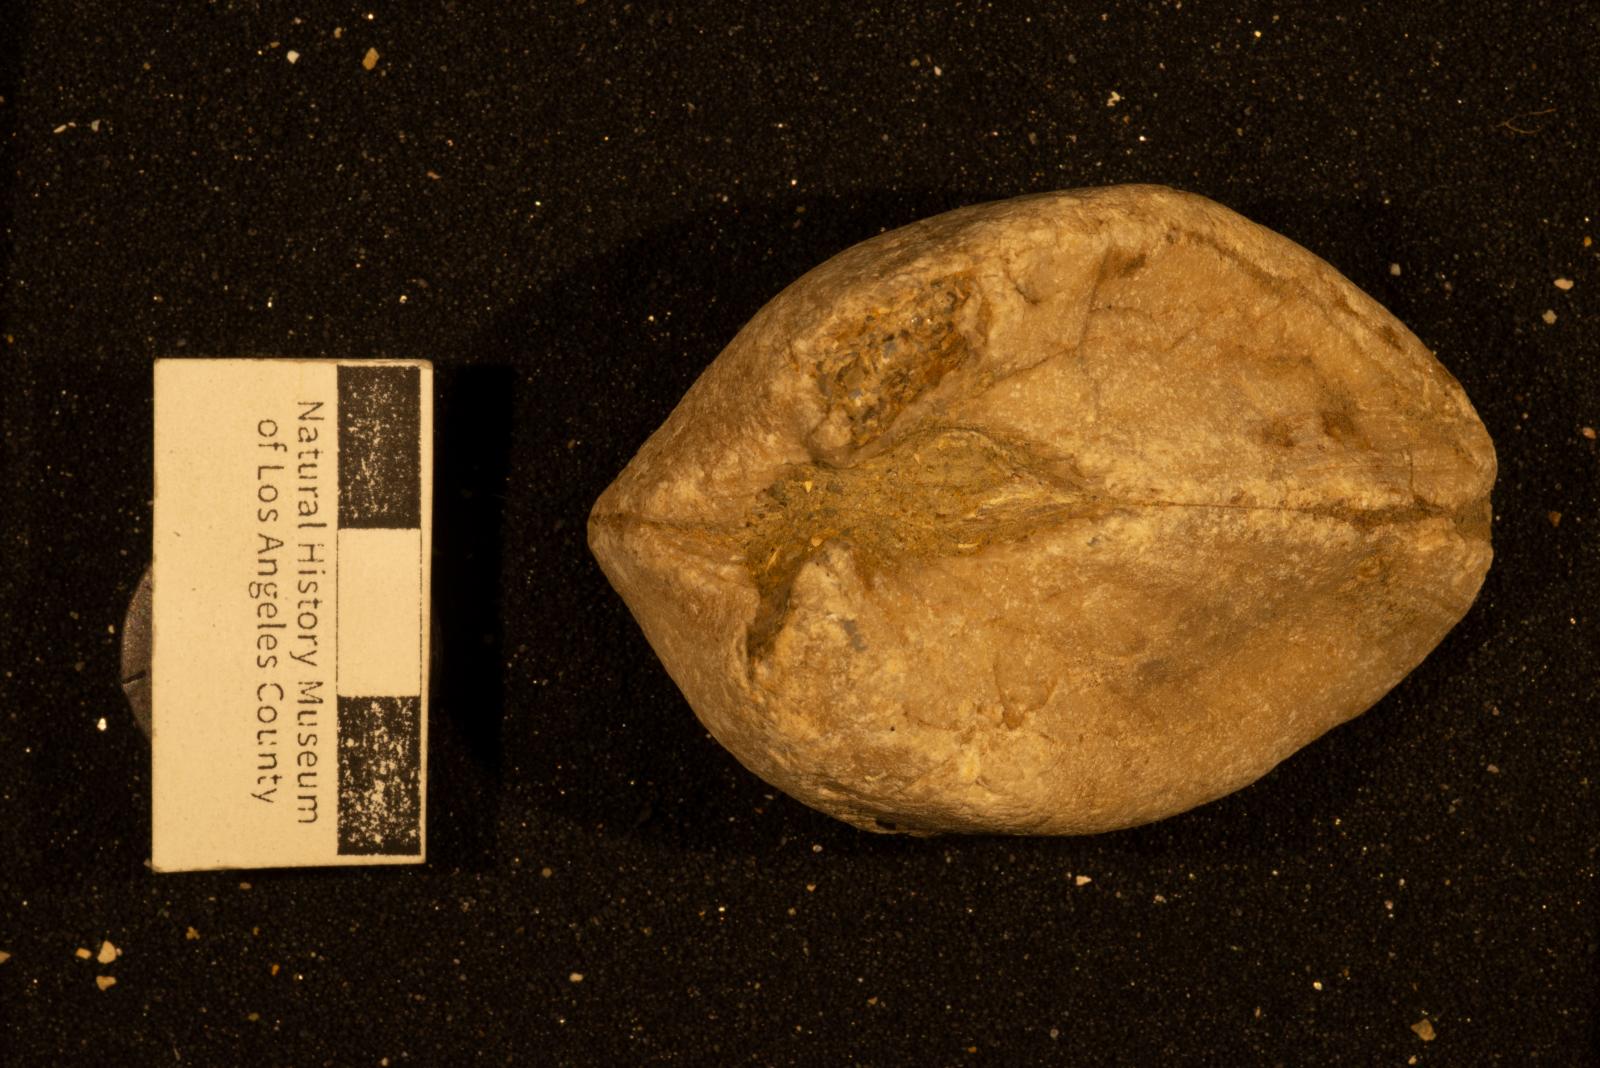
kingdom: Animalia
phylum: Mollusca
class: Bivalvia
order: Arcida
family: Arcidae
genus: Trigonarca
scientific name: Trigonarca californica
